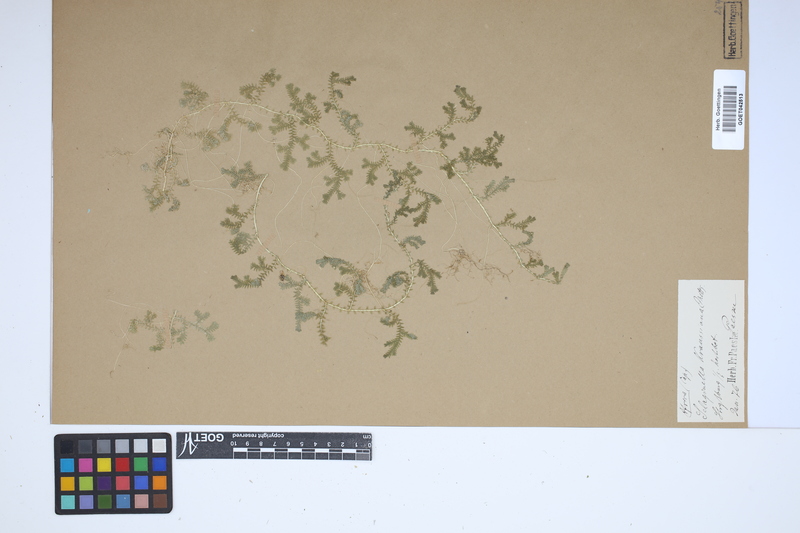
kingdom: Plantae
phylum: Tracheophyta
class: Lycopodiopsida
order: Selaginellales
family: Selaginellaceae
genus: Selaginella
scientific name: Selaginella kraussiana
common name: Krauss' spikemoss
